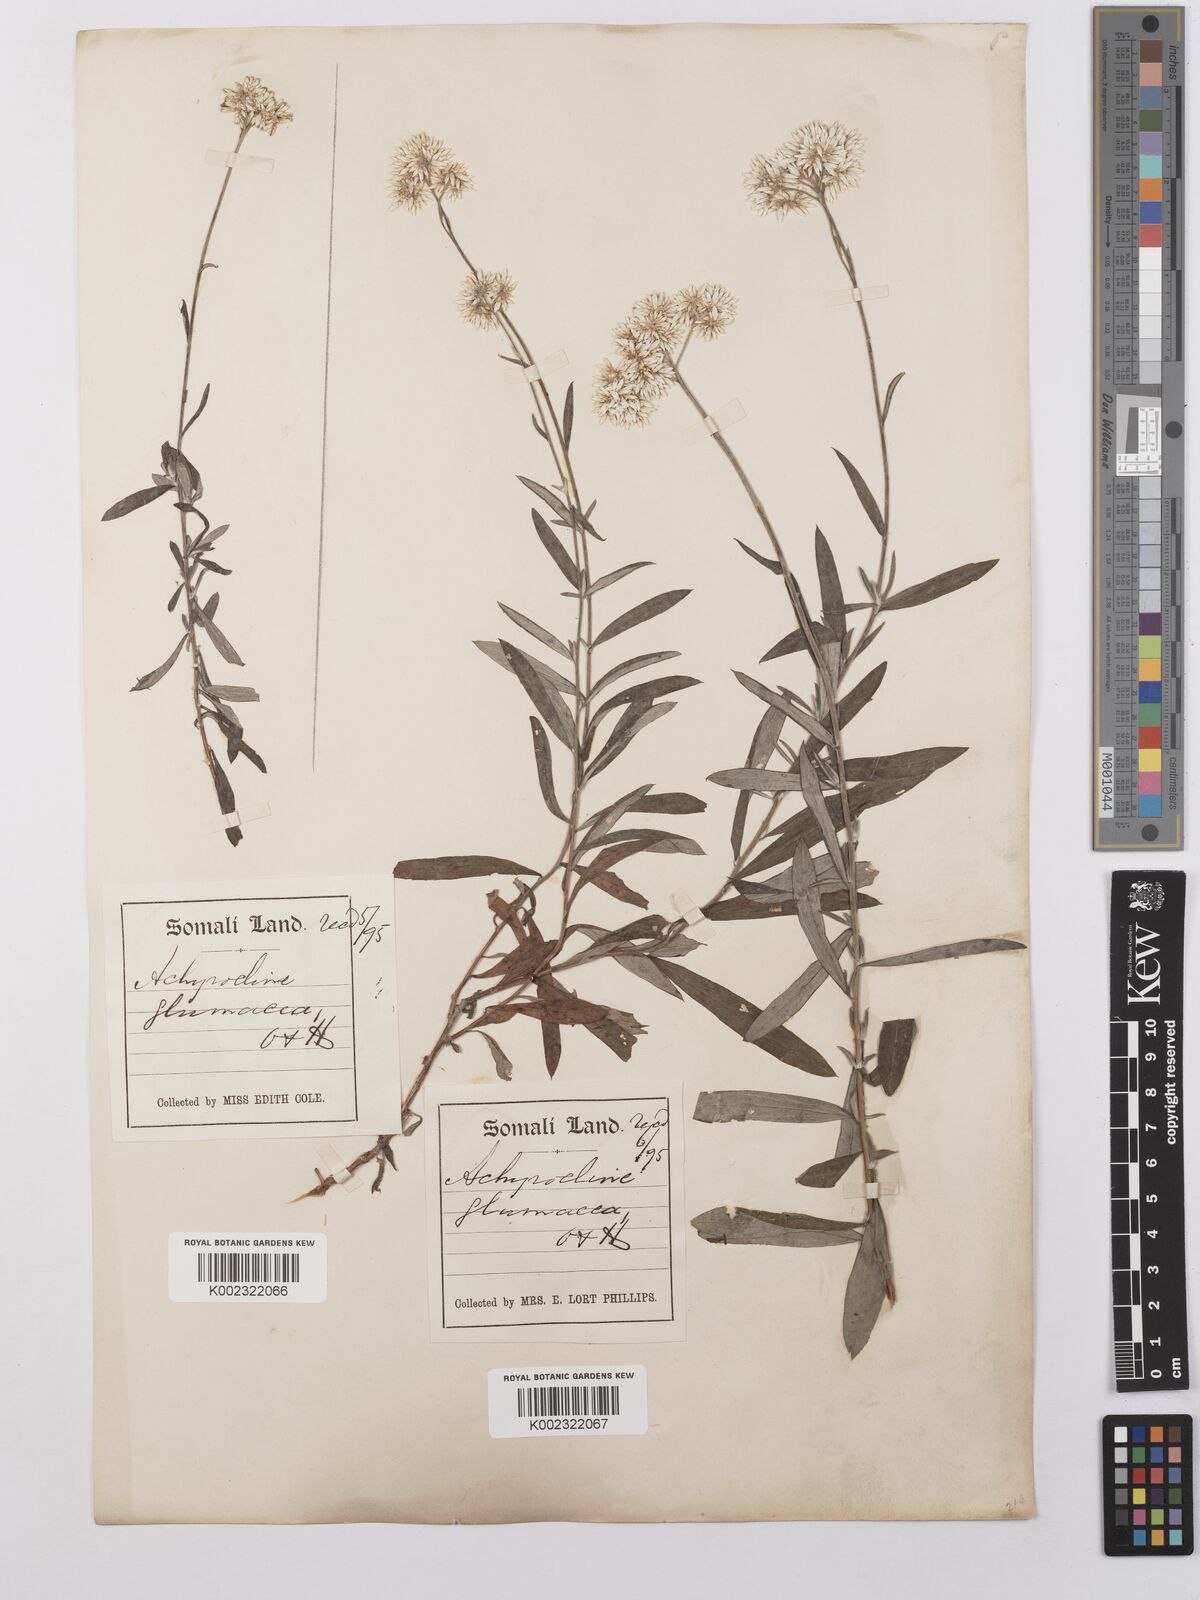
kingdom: Plantae
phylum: Tracheophyta
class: Magnoliopsida
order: Asterales
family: Asteraceae
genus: Helichrysum
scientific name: Helichrysum glumaceum
